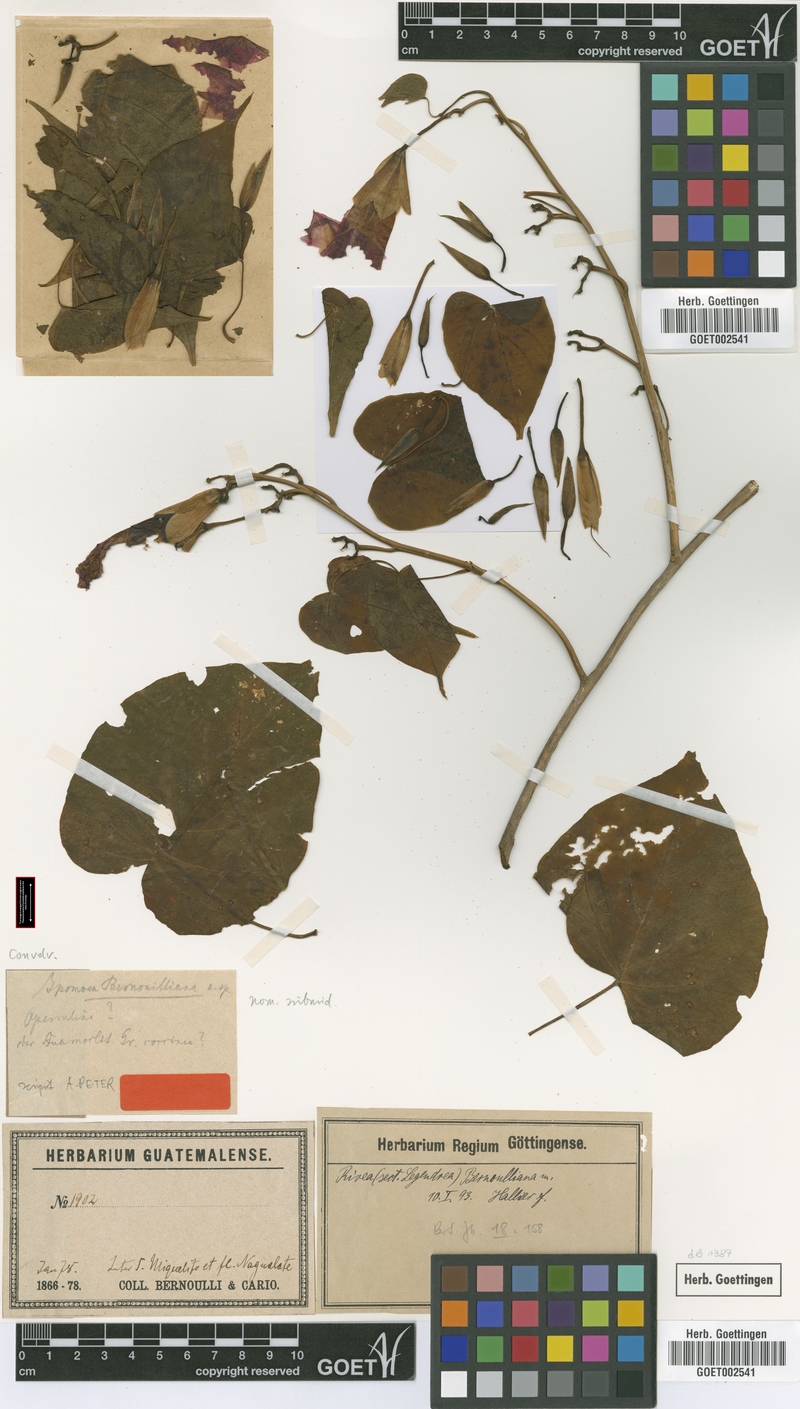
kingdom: Plantae
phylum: Tracheophyta
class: Magnoliopsida
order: Solanales
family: Convolvulaceae
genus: Ipomoea
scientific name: Ipomoea bernoulliana
